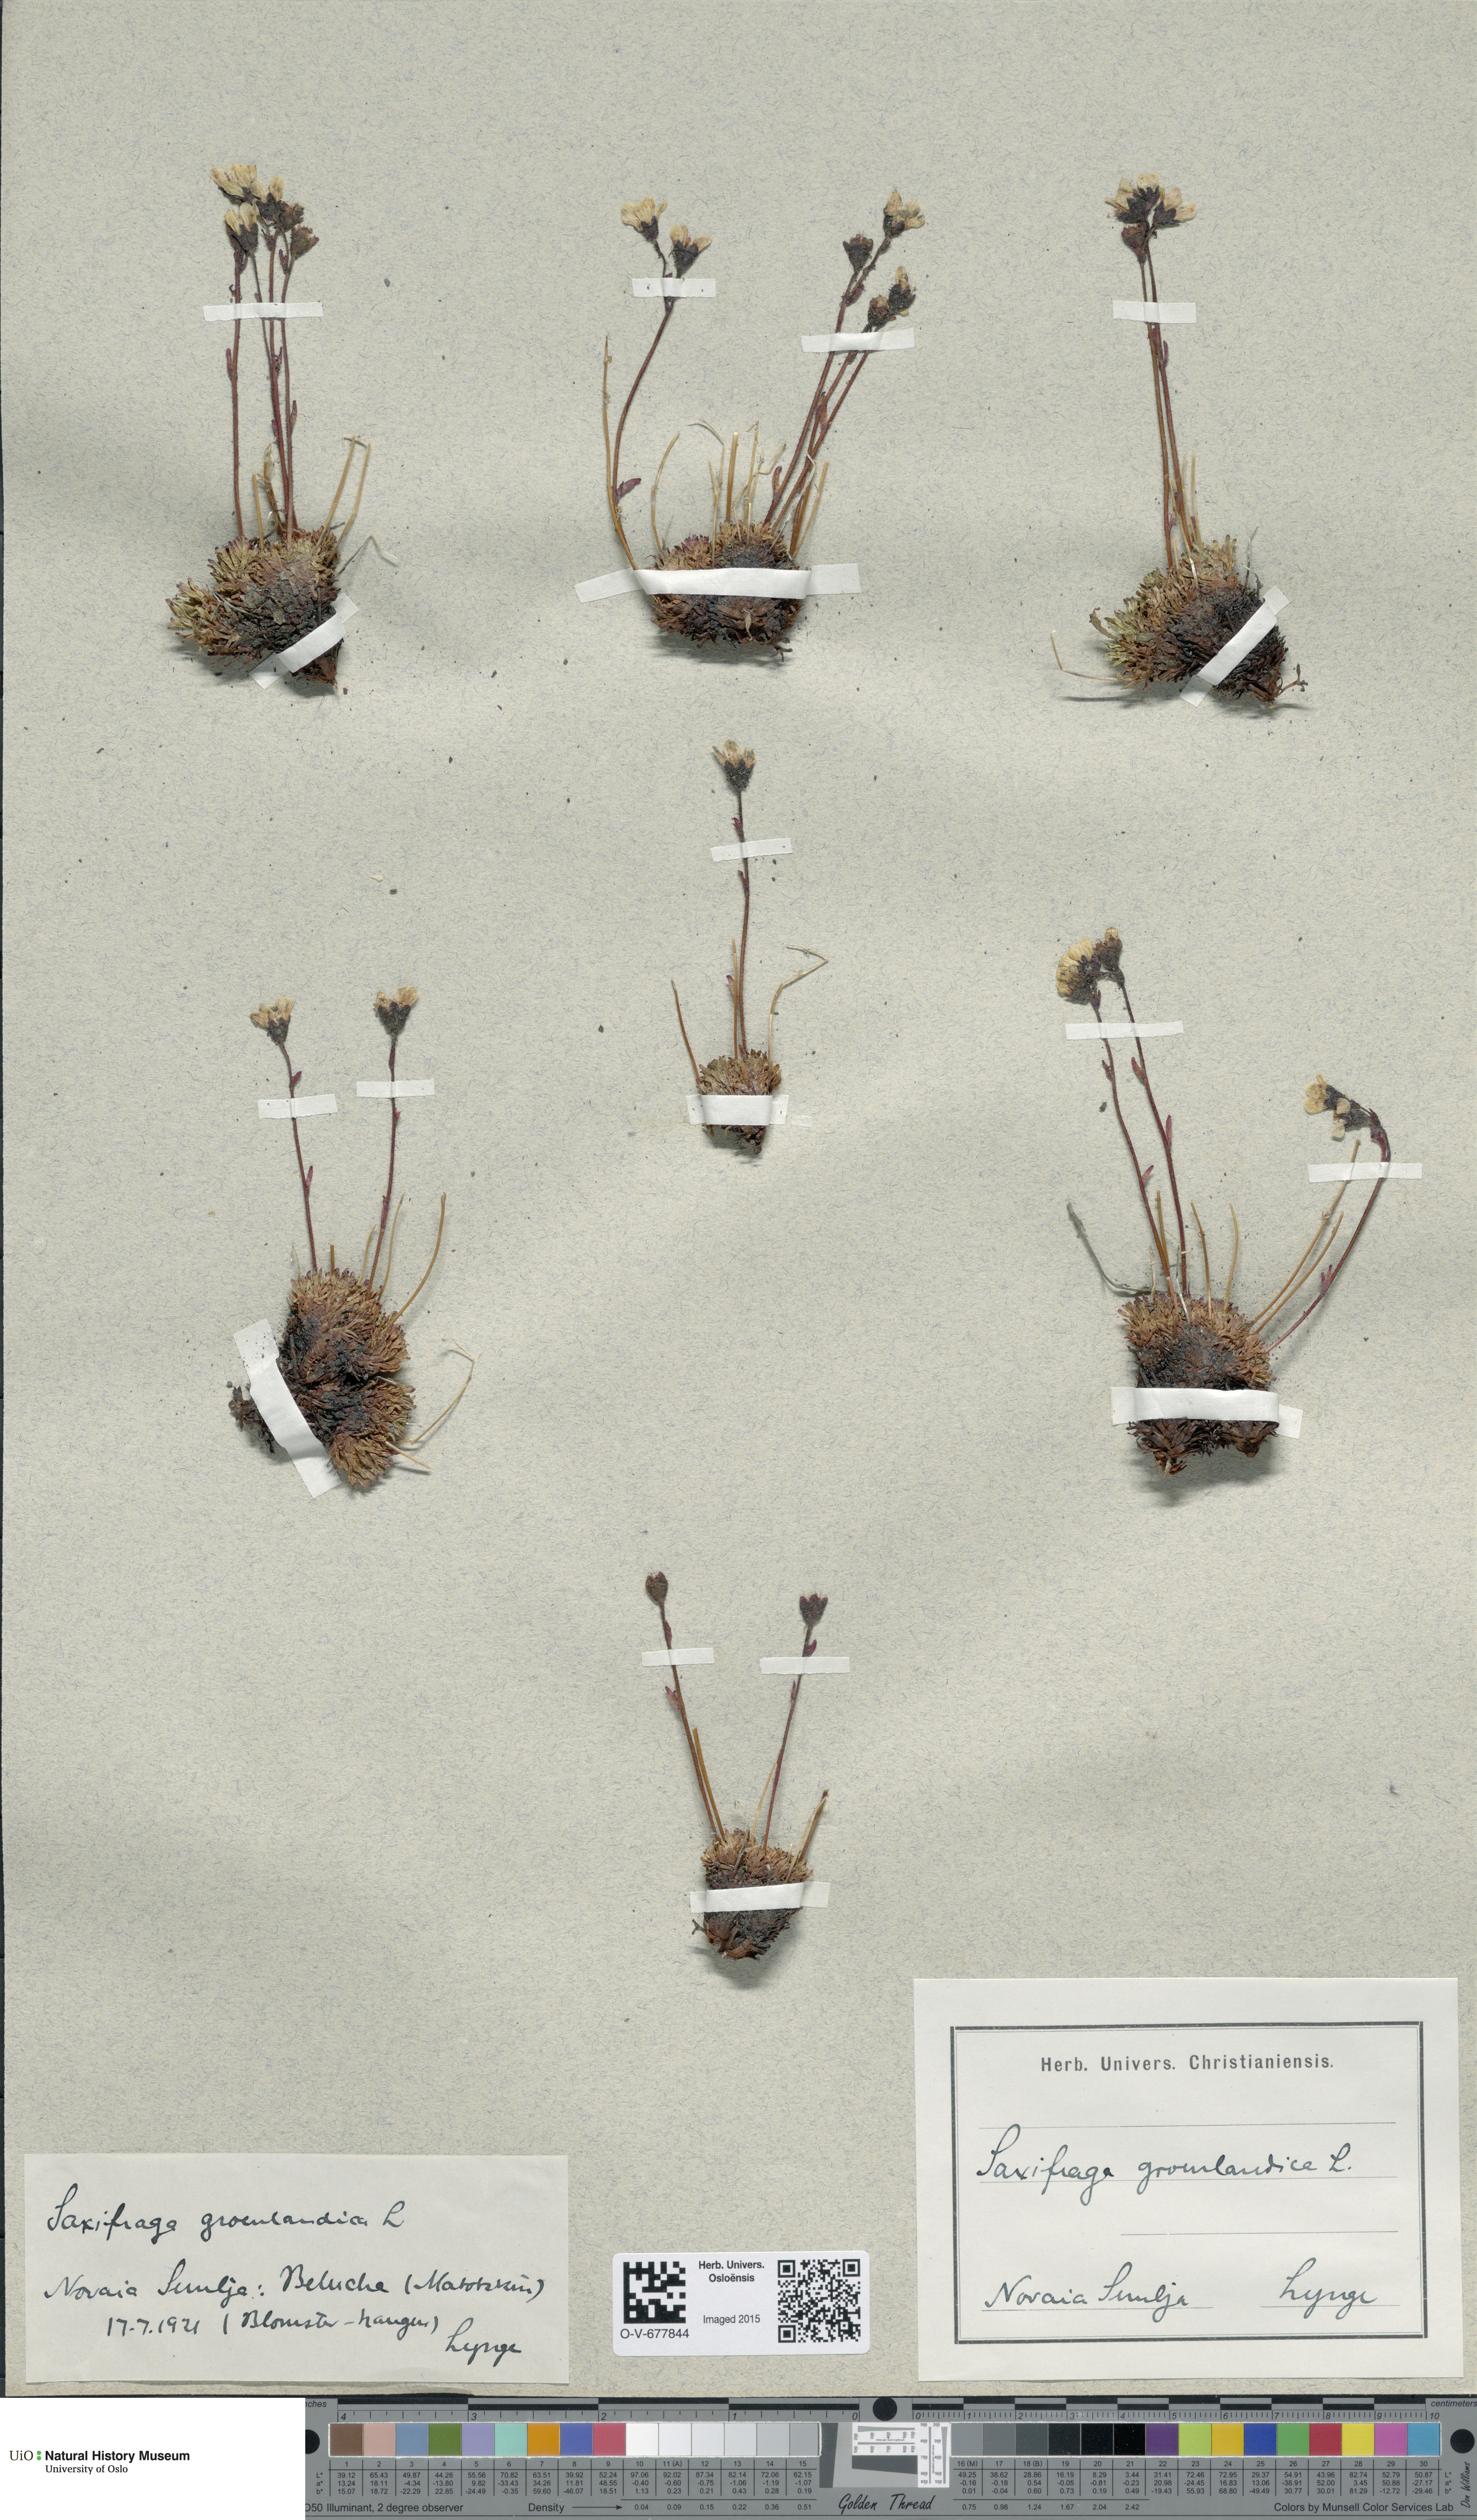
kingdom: Plantae
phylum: Tracheophyta
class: Magnoliopsida
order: Saxifragales
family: Saxifragaceae
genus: Saxifraga
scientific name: Saxifraga cespitosa
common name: Tufted saxifrage
